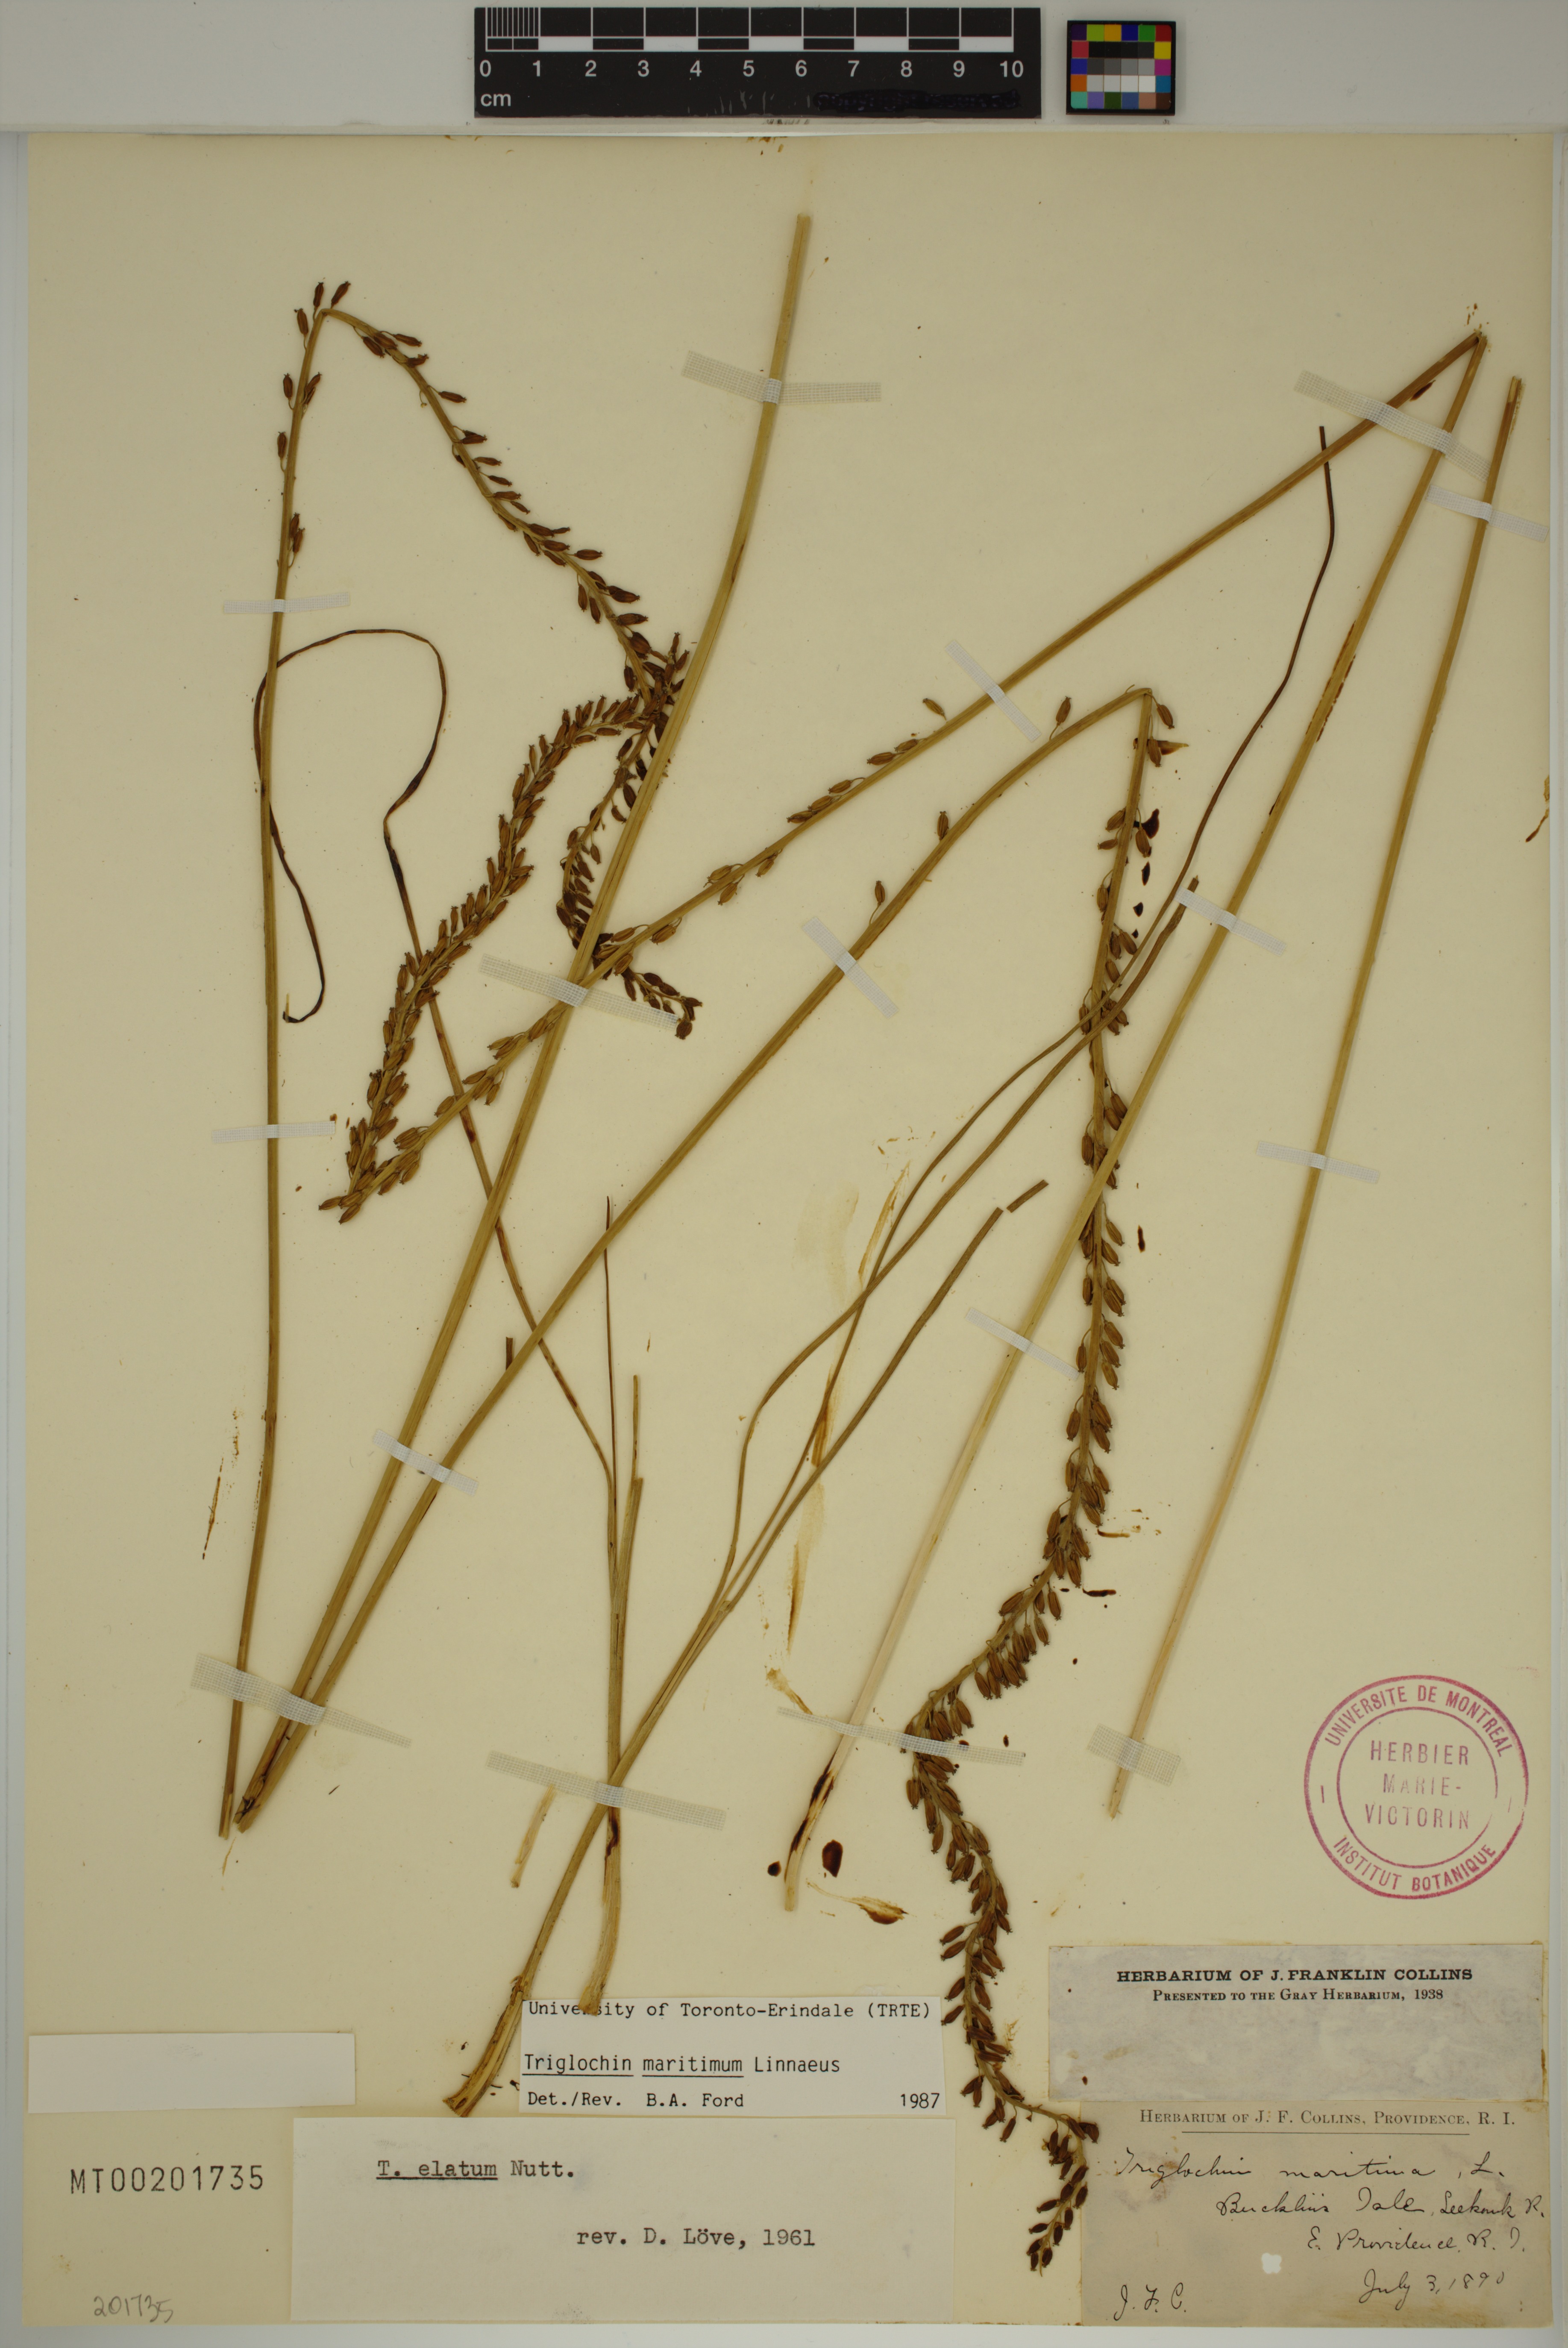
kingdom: Plantae
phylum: Tracheophyta
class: Liliopsida
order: Alismatales
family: Juncaginaceae
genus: Triglochin
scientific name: Triglochin maritima
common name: Sea arrowgrass
